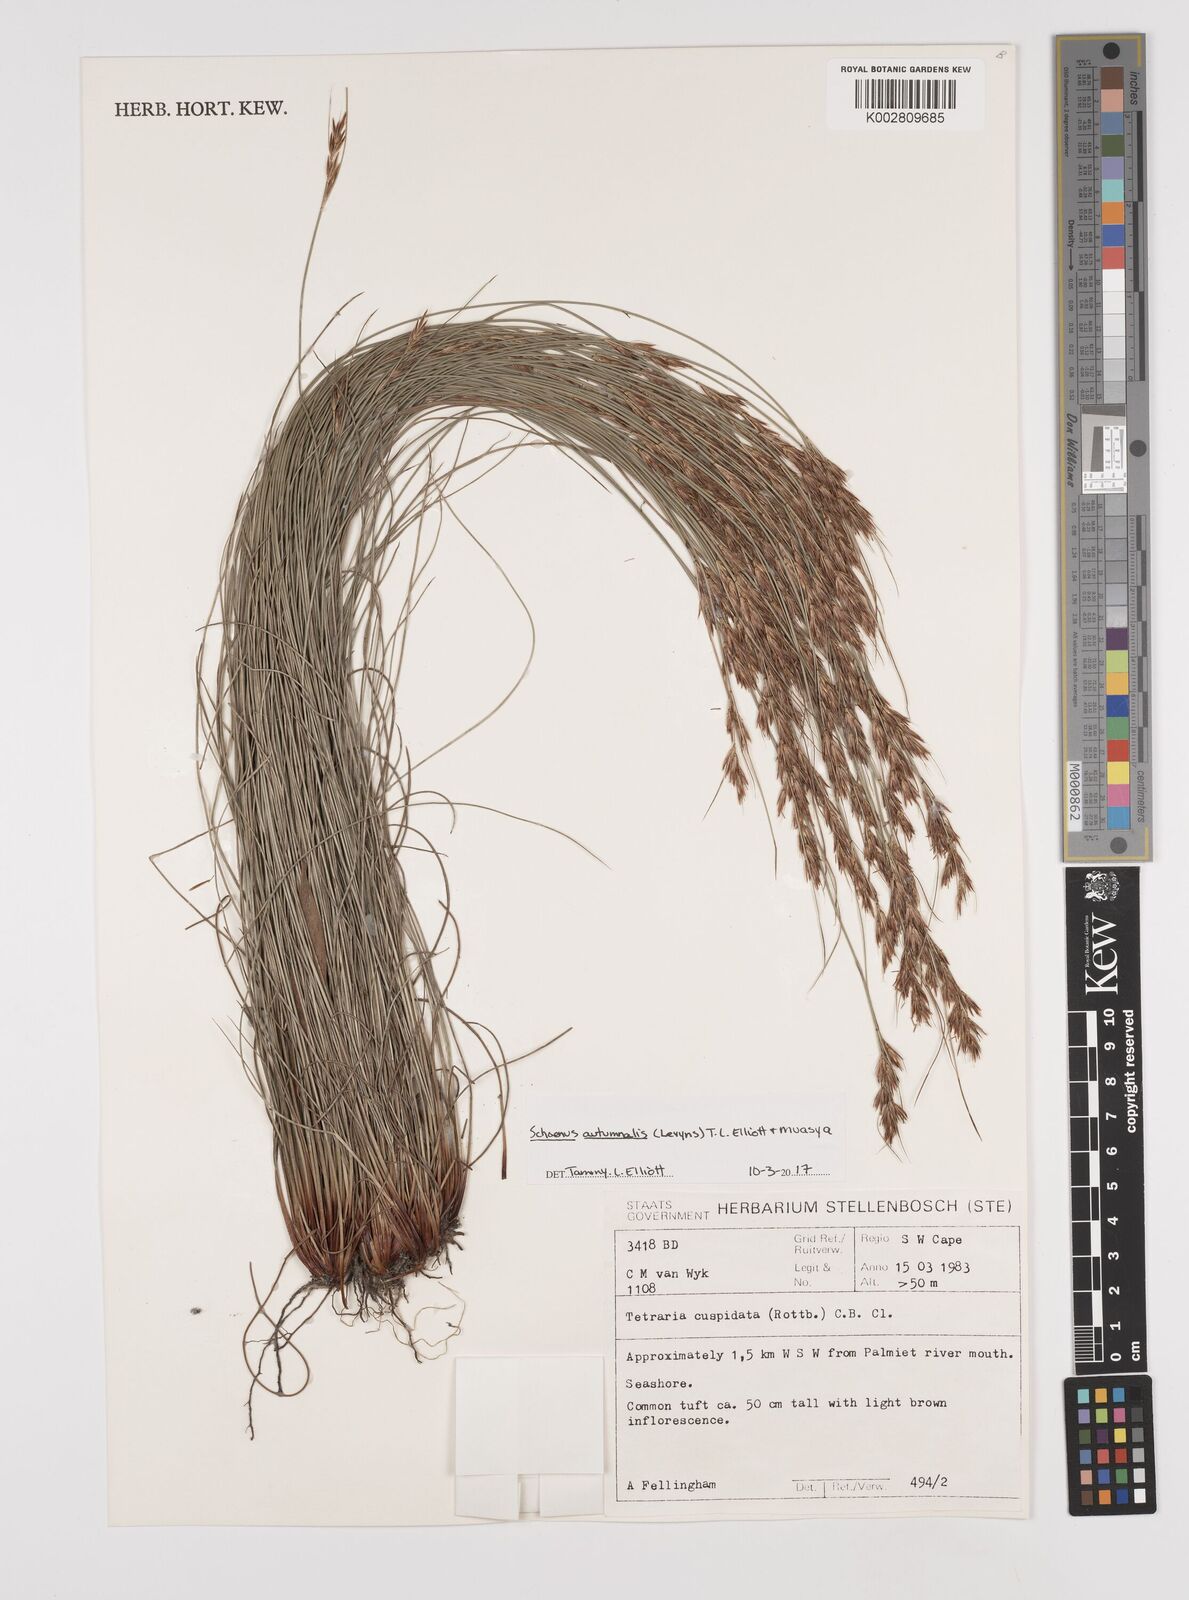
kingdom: Plantae
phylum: Tracheophyta
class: Liliopsida
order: Poales
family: Cyperaceae
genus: Schoenus
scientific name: Schoenus ligulatus
